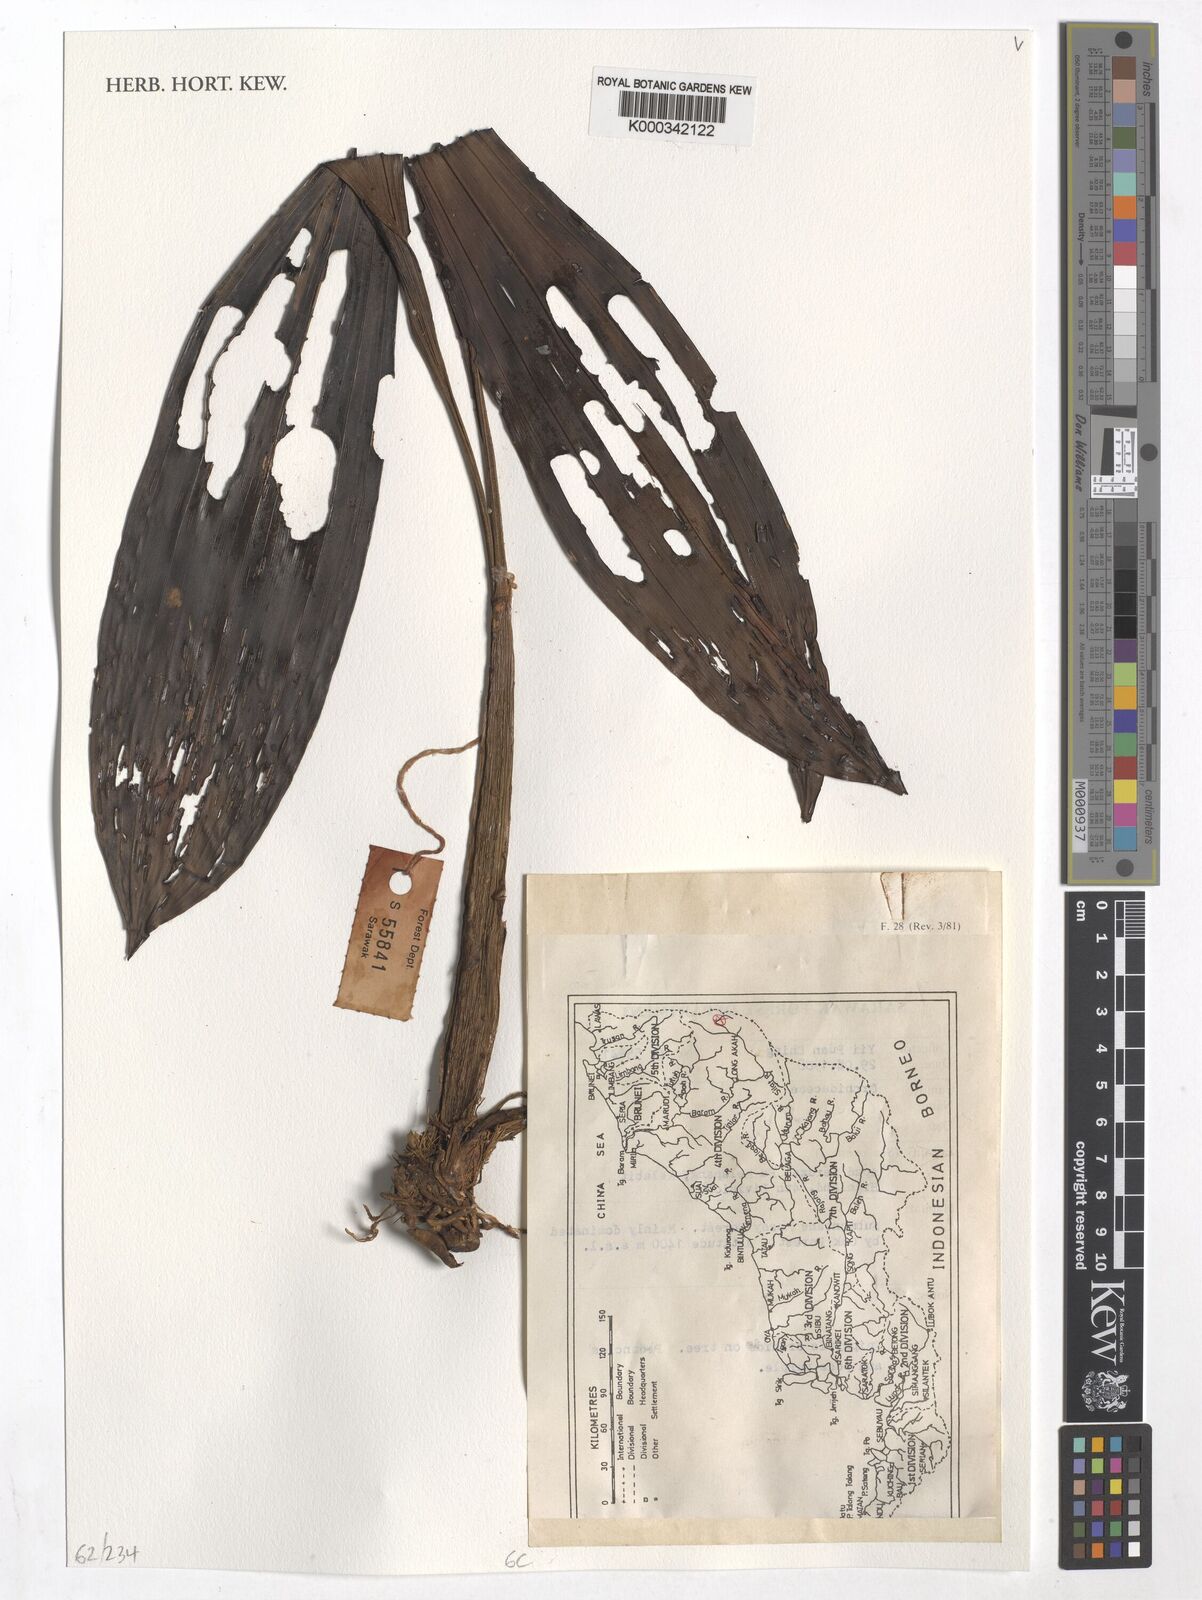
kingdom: Plantae
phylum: Tracheophyta
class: Liliopsida
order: Asparagales
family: Orchidaceae
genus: Coelogyne
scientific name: Coelogyne
